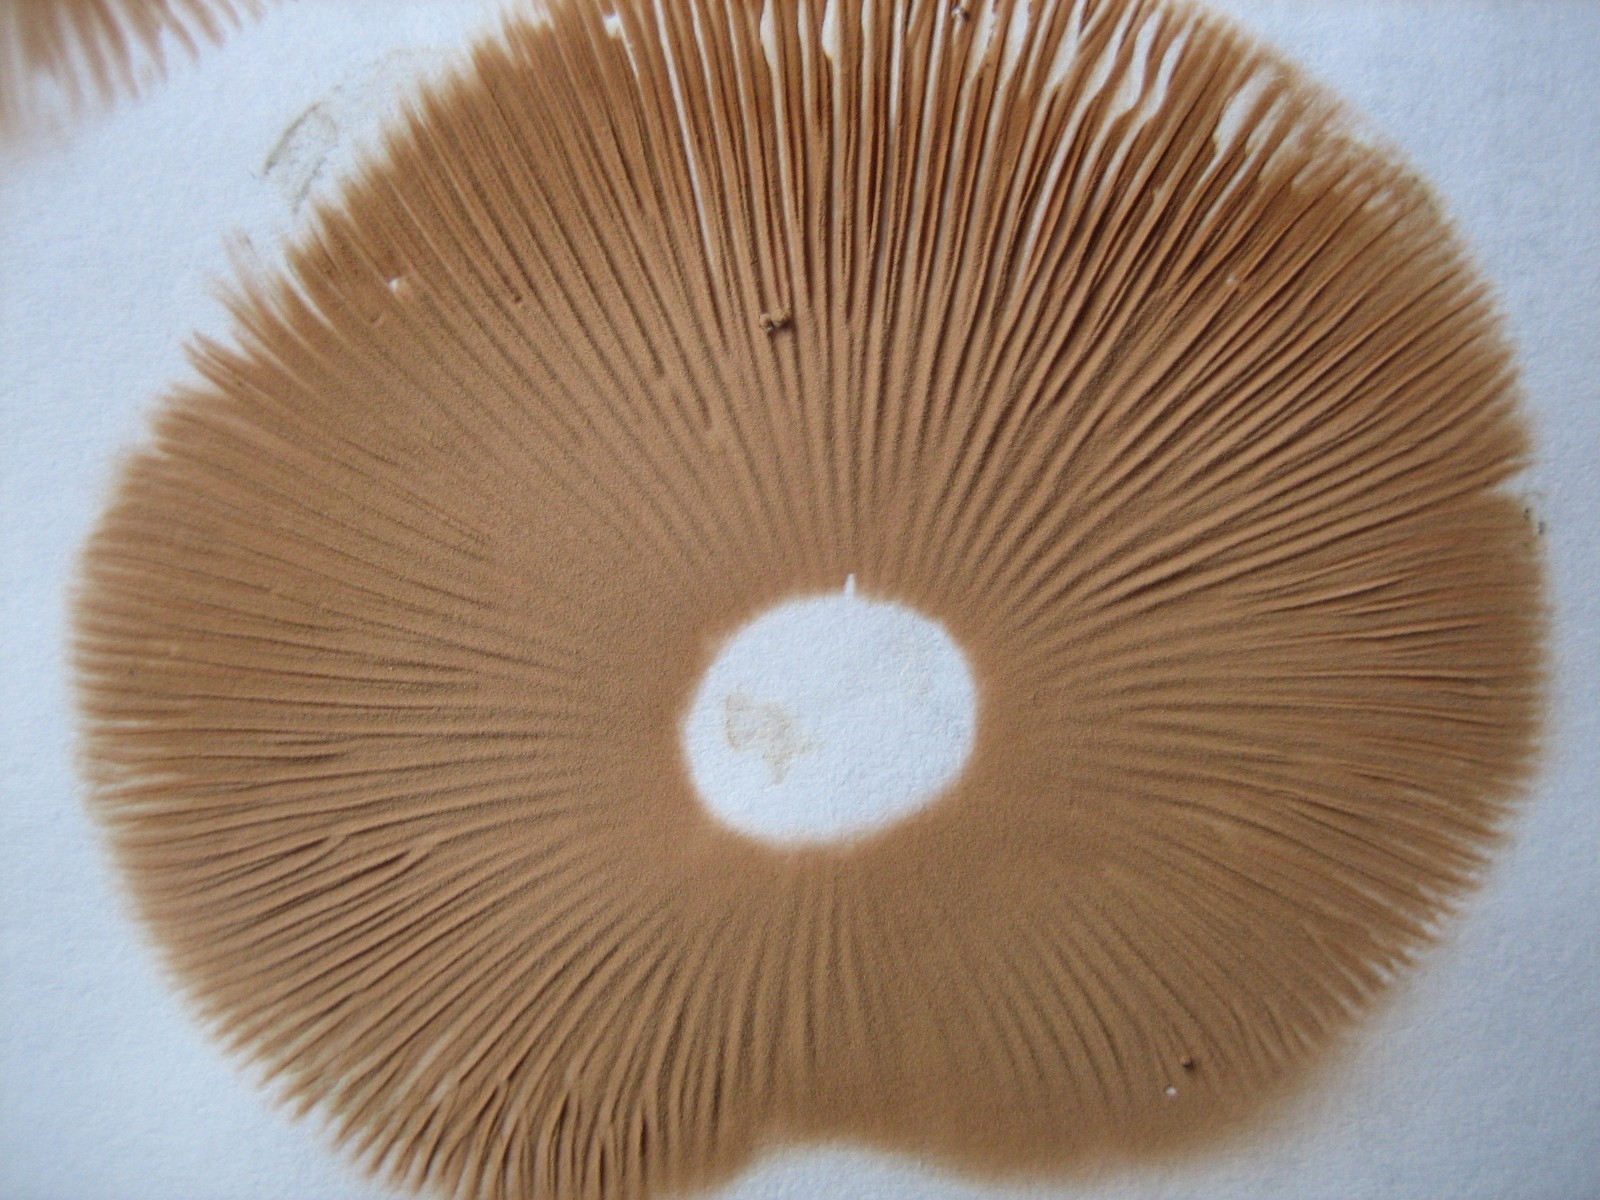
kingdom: Fungi
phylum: Basidiomycota
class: Agaricomycetes
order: Agaricales
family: Pluteaceae
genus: Pluteus
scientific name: Pluteus salicinus
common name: stiv skærmhat
